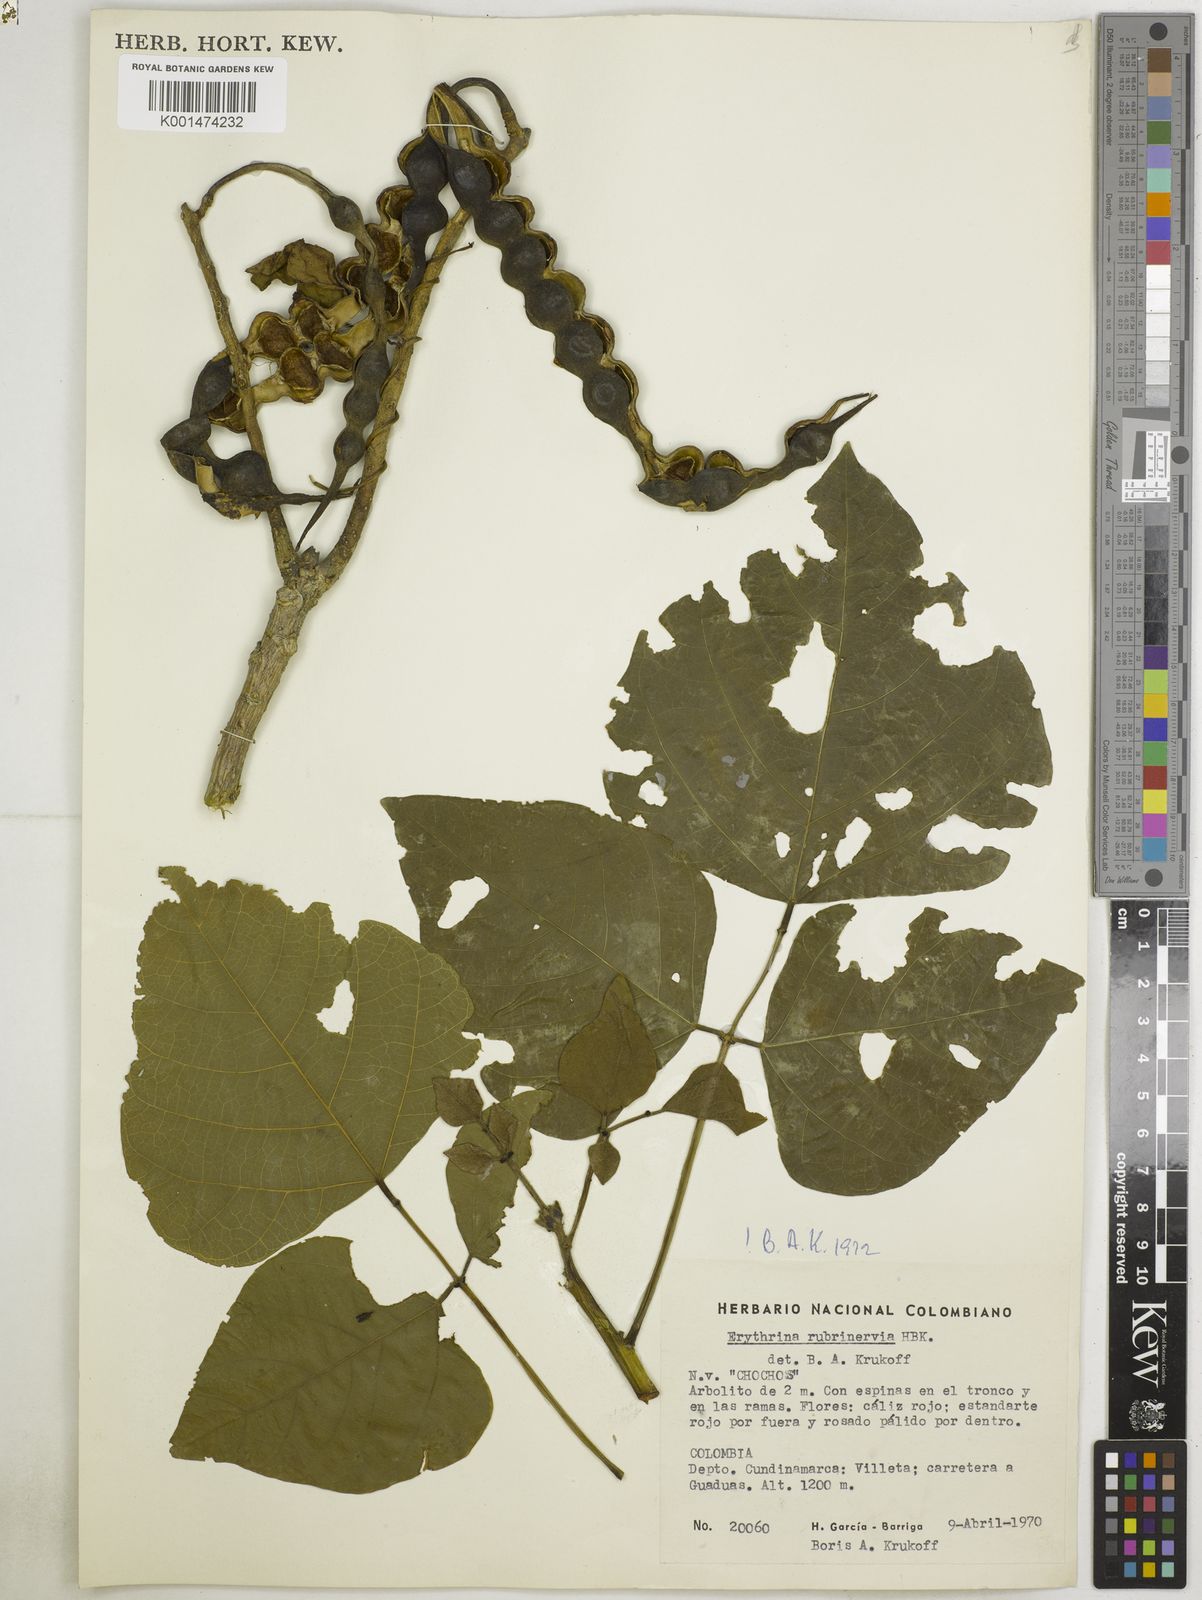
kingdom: Plantae
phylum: Tracheophyta
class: Magnoliopsida
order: Fabales
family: Fabaceae
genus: Erythrina
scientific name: Erythrina rubrinervia
